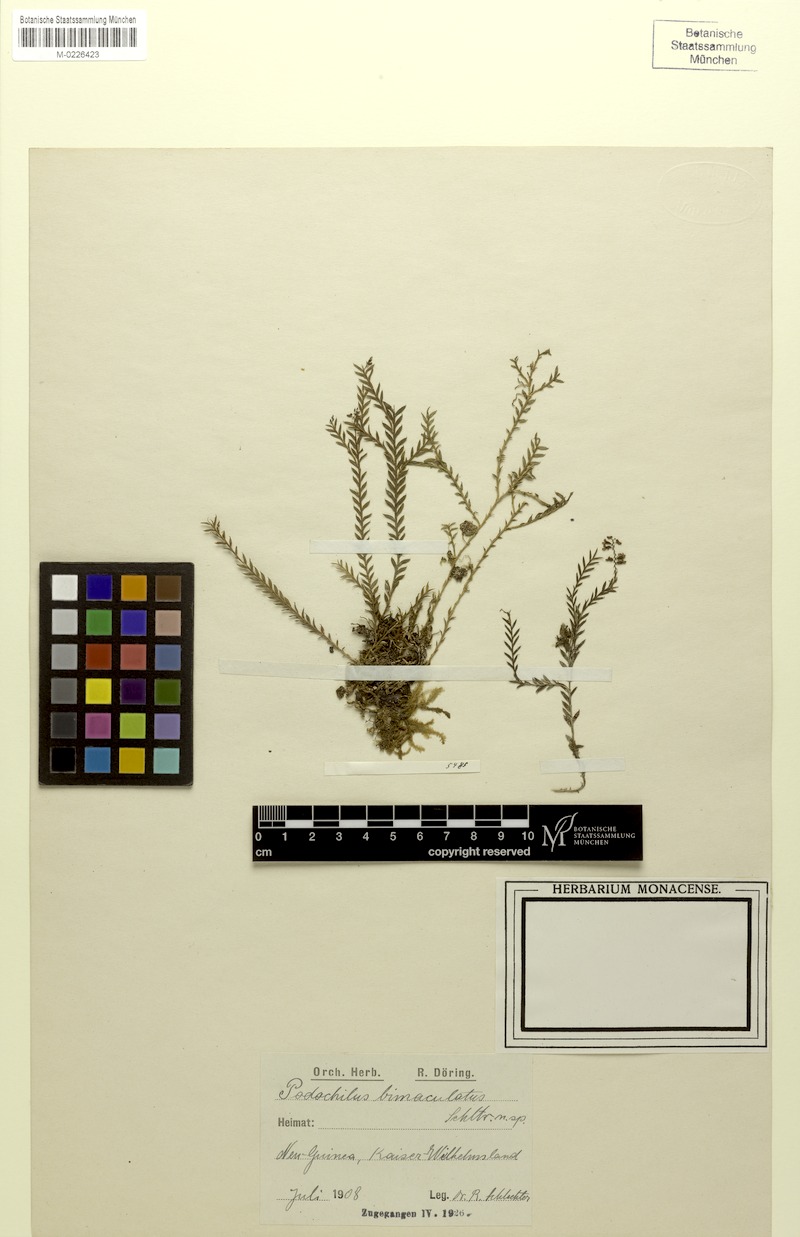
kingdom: Plantae
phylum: Tracheophyta
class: Liliopsida
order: Asparagales
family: Orchidaceae
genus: Podochilus
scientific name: Podochilus hellwigii
